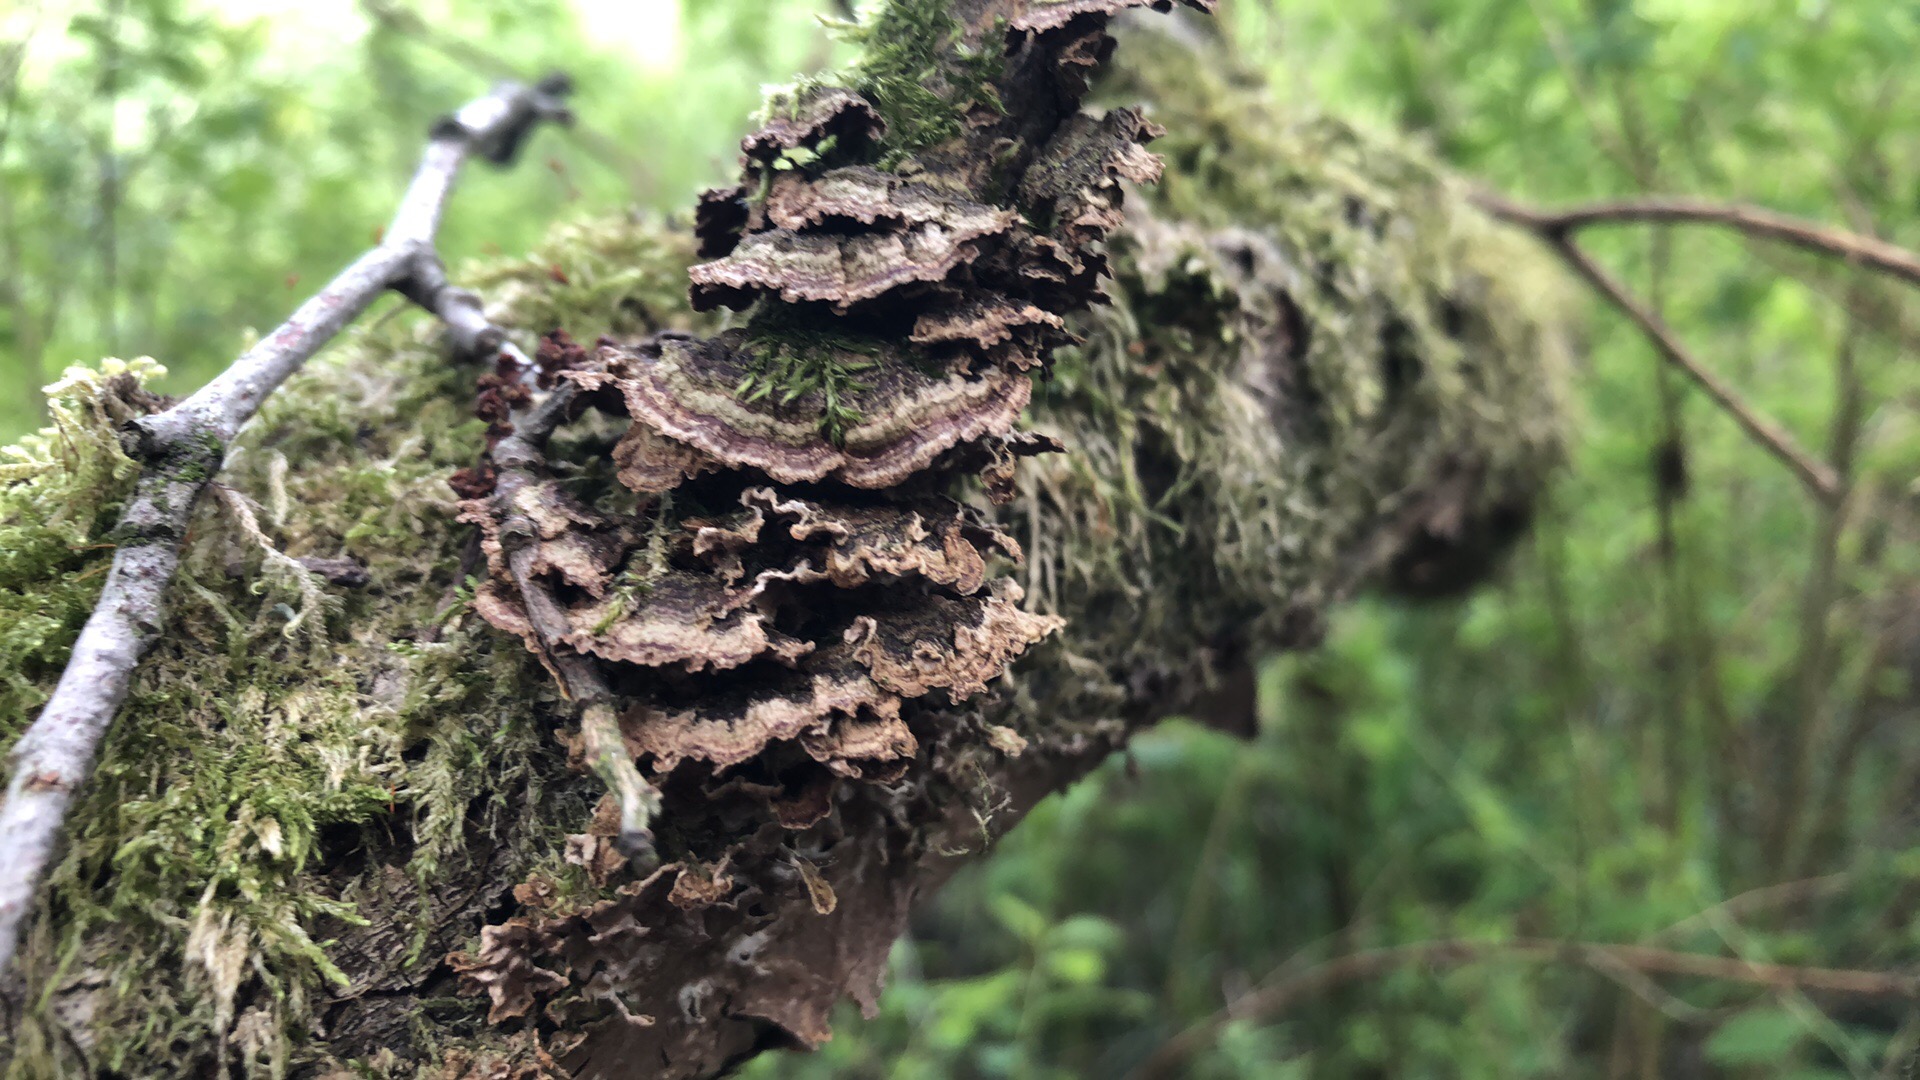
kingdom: Fungi
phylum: Basidiomycota
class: Agaricomycetes
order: Hymenochaetales
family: Hymenochaetaceae
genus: Hydnoporia
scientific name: Hydnoporia tabacina
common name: tobaksbrun ruslædersvamp
